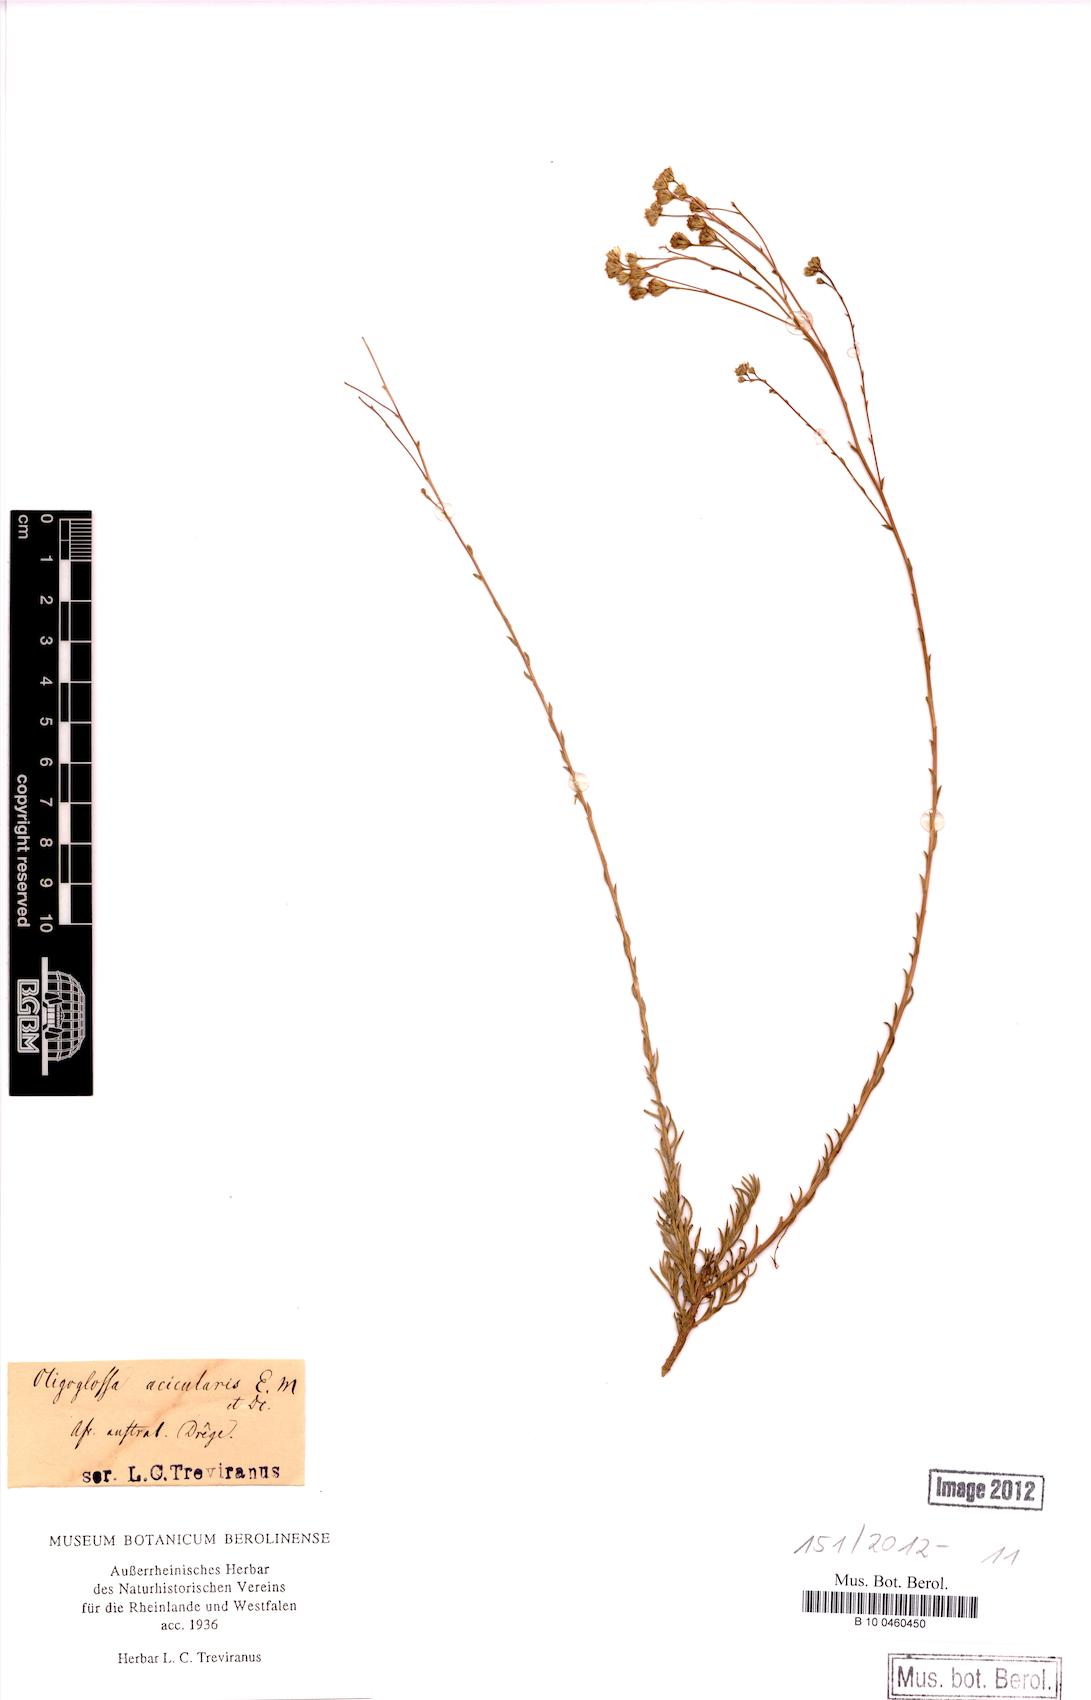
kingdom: Plantae
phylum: Tracheophyta
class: Magnoliopsida
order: Asterales
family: Asteraceae
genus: Phymaspermum
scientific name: Phymaspermum aciculare
